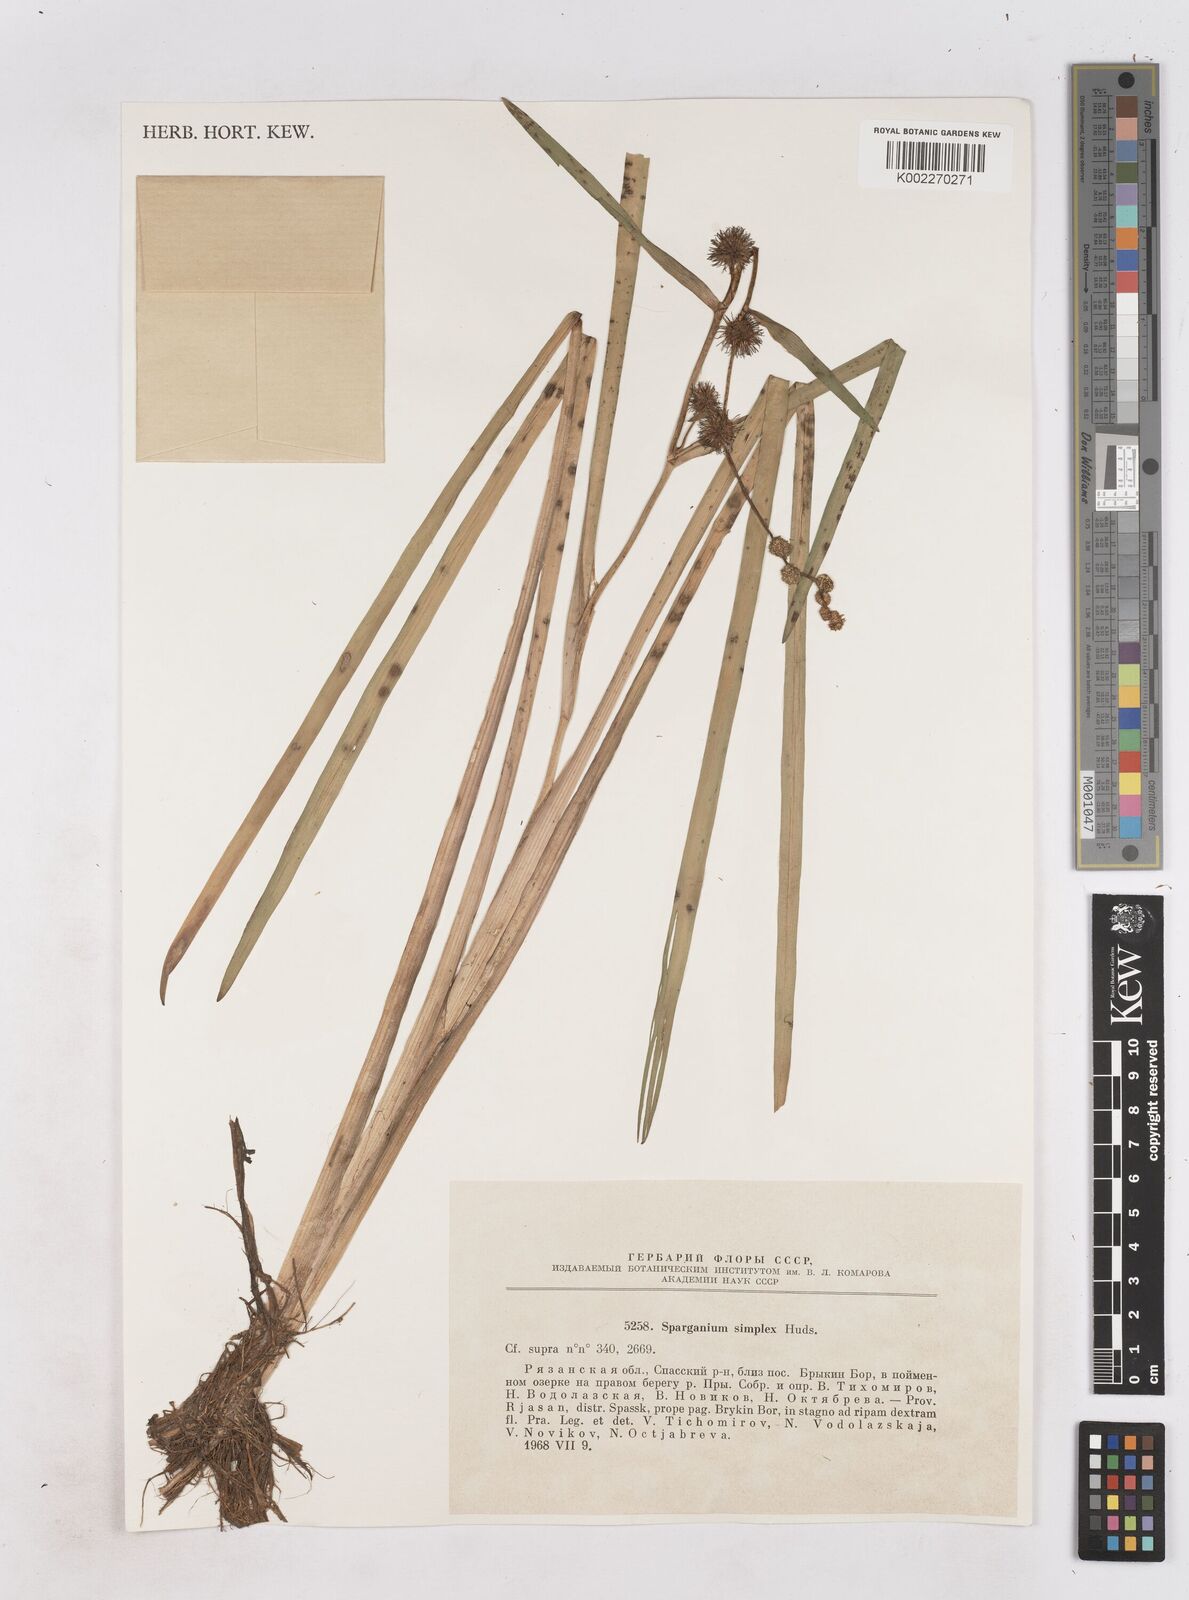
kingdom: Plantae
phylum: Tracheophyta
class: Liliopsida
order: Poales
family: Typhaceae
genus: Sparganium
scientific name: Sparganium emersum
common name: Unbranched bur-reed
